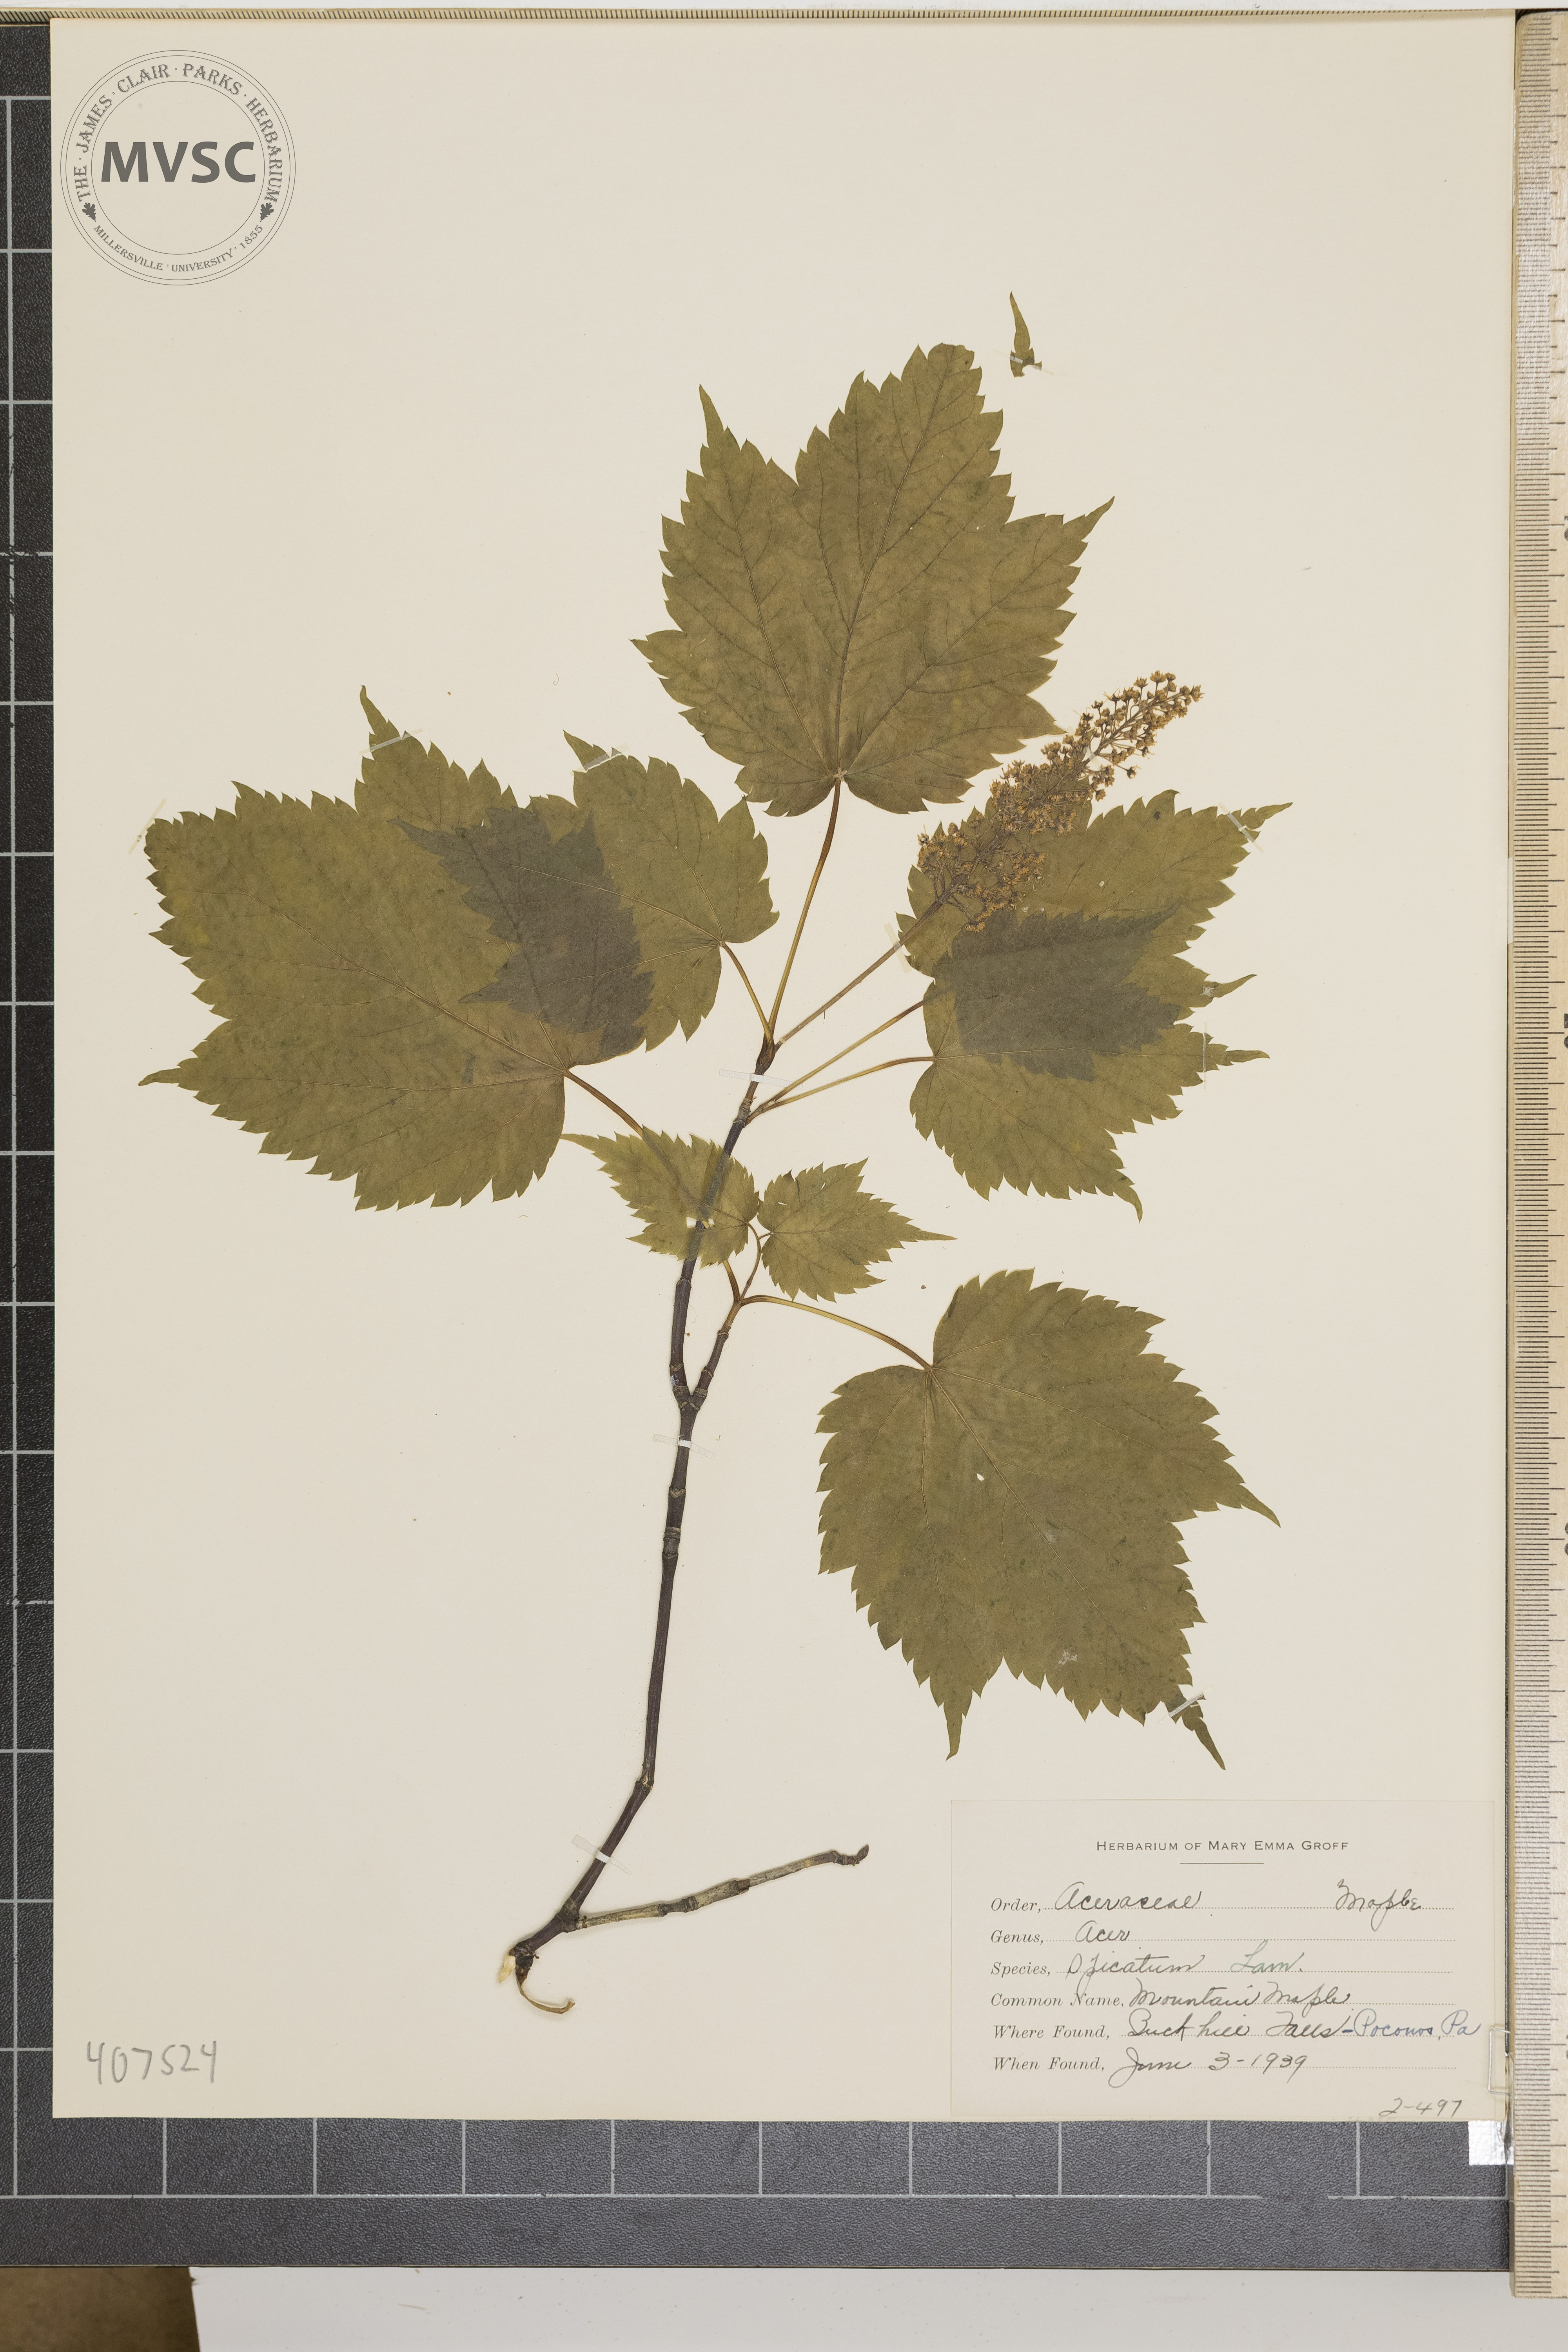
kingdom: Plantae
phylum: Tracheophyta
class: Magnoliopsida
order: Sapindales
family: Sapindaceae
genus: Acer
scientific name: Acer spicatum
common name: Mountain Maple
